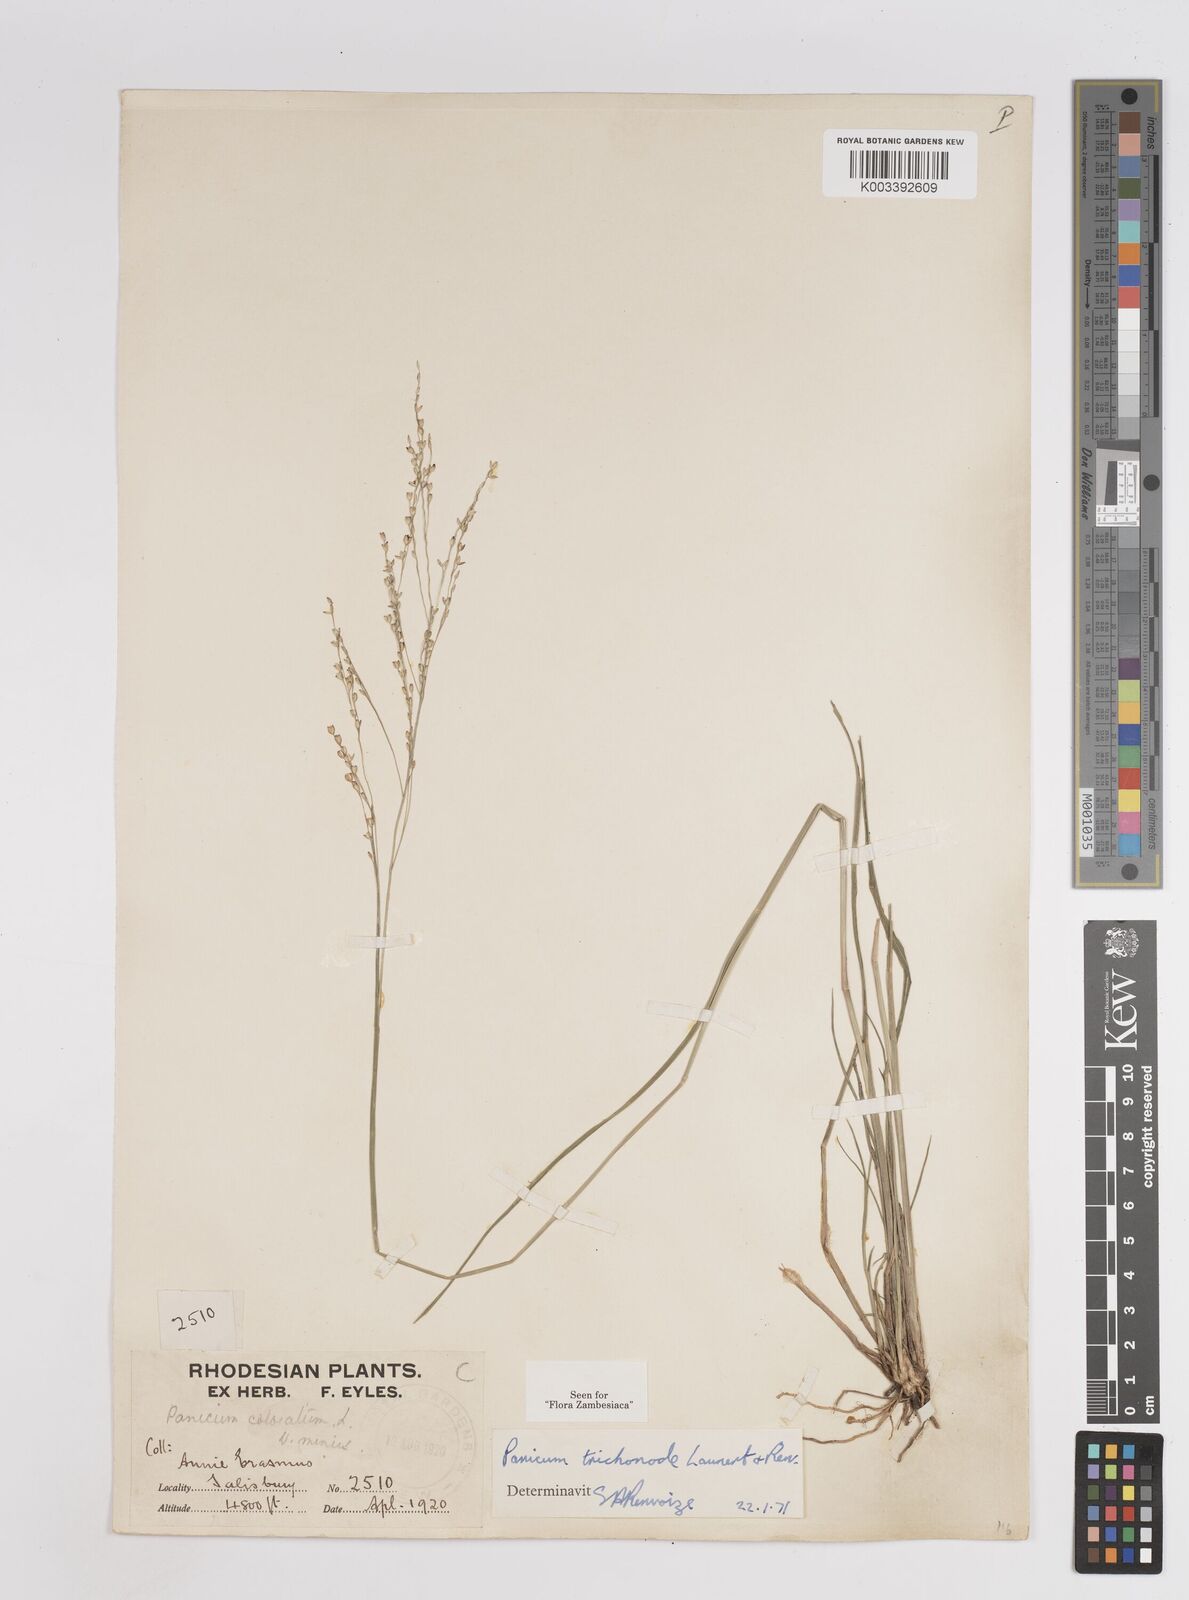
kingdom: Plantae
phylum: Tracheophyta
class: Liliopsida
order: Poales
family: Poaceae
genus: Panicum
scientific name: Panicum trichonode
